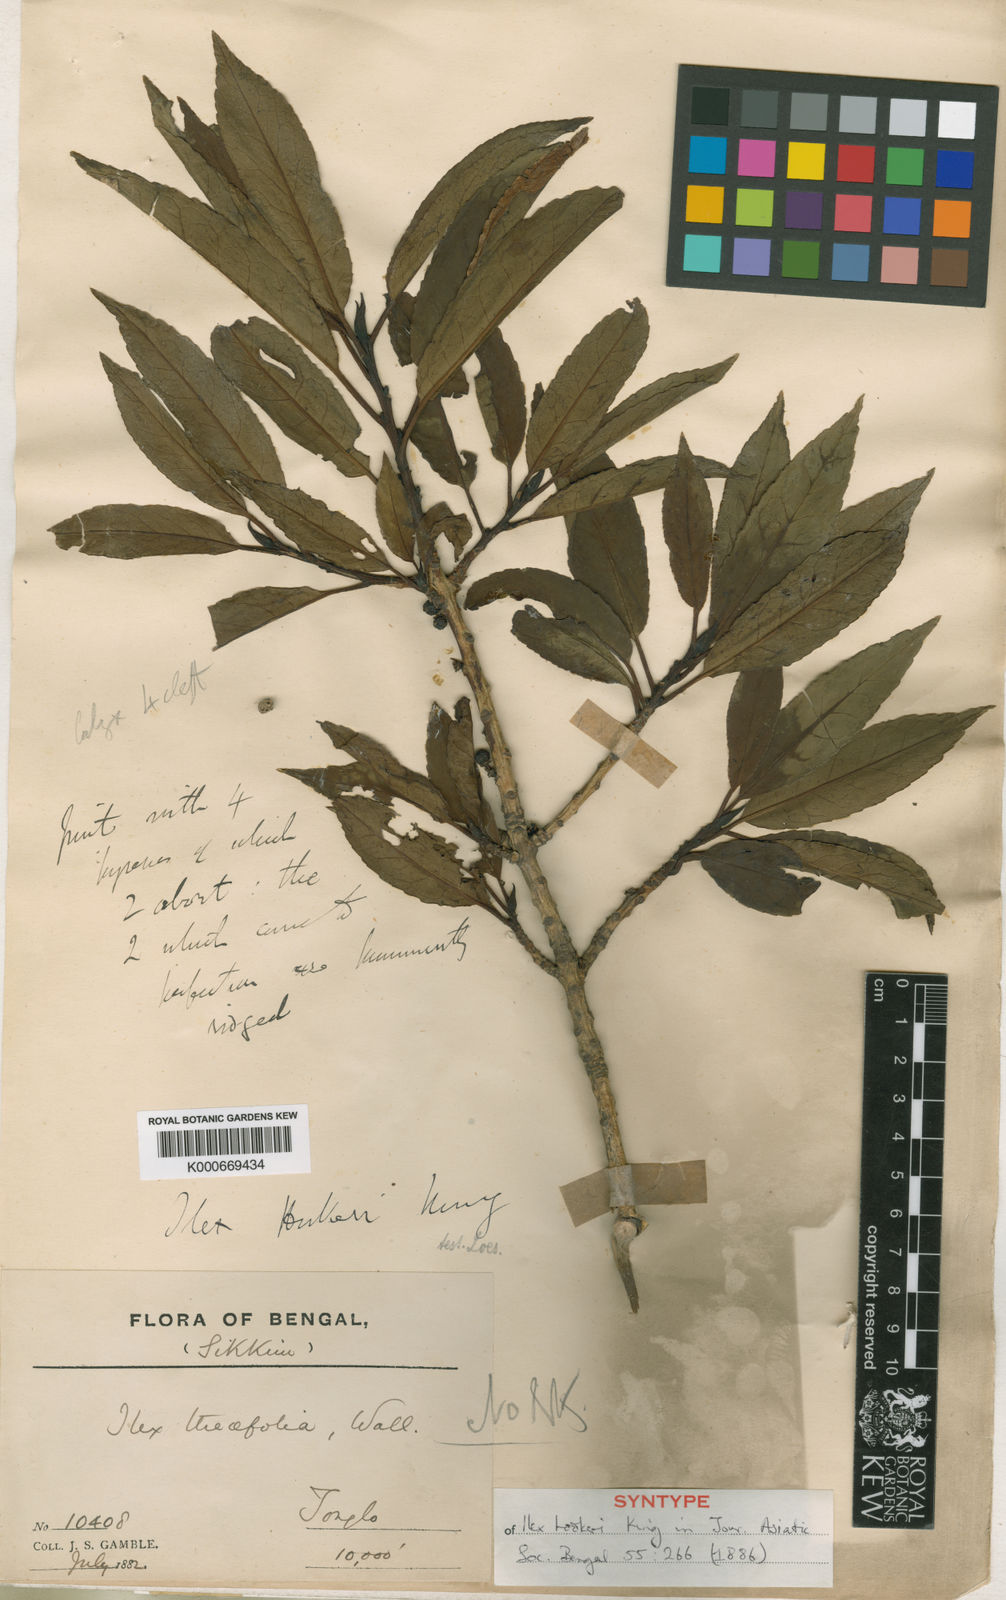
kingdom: Plantae
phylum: Tracheophyta
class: Magnoliopsida
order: Aquifoliales
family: Aquifoliaceae
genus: Ilex
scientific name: Ilex hookeri
